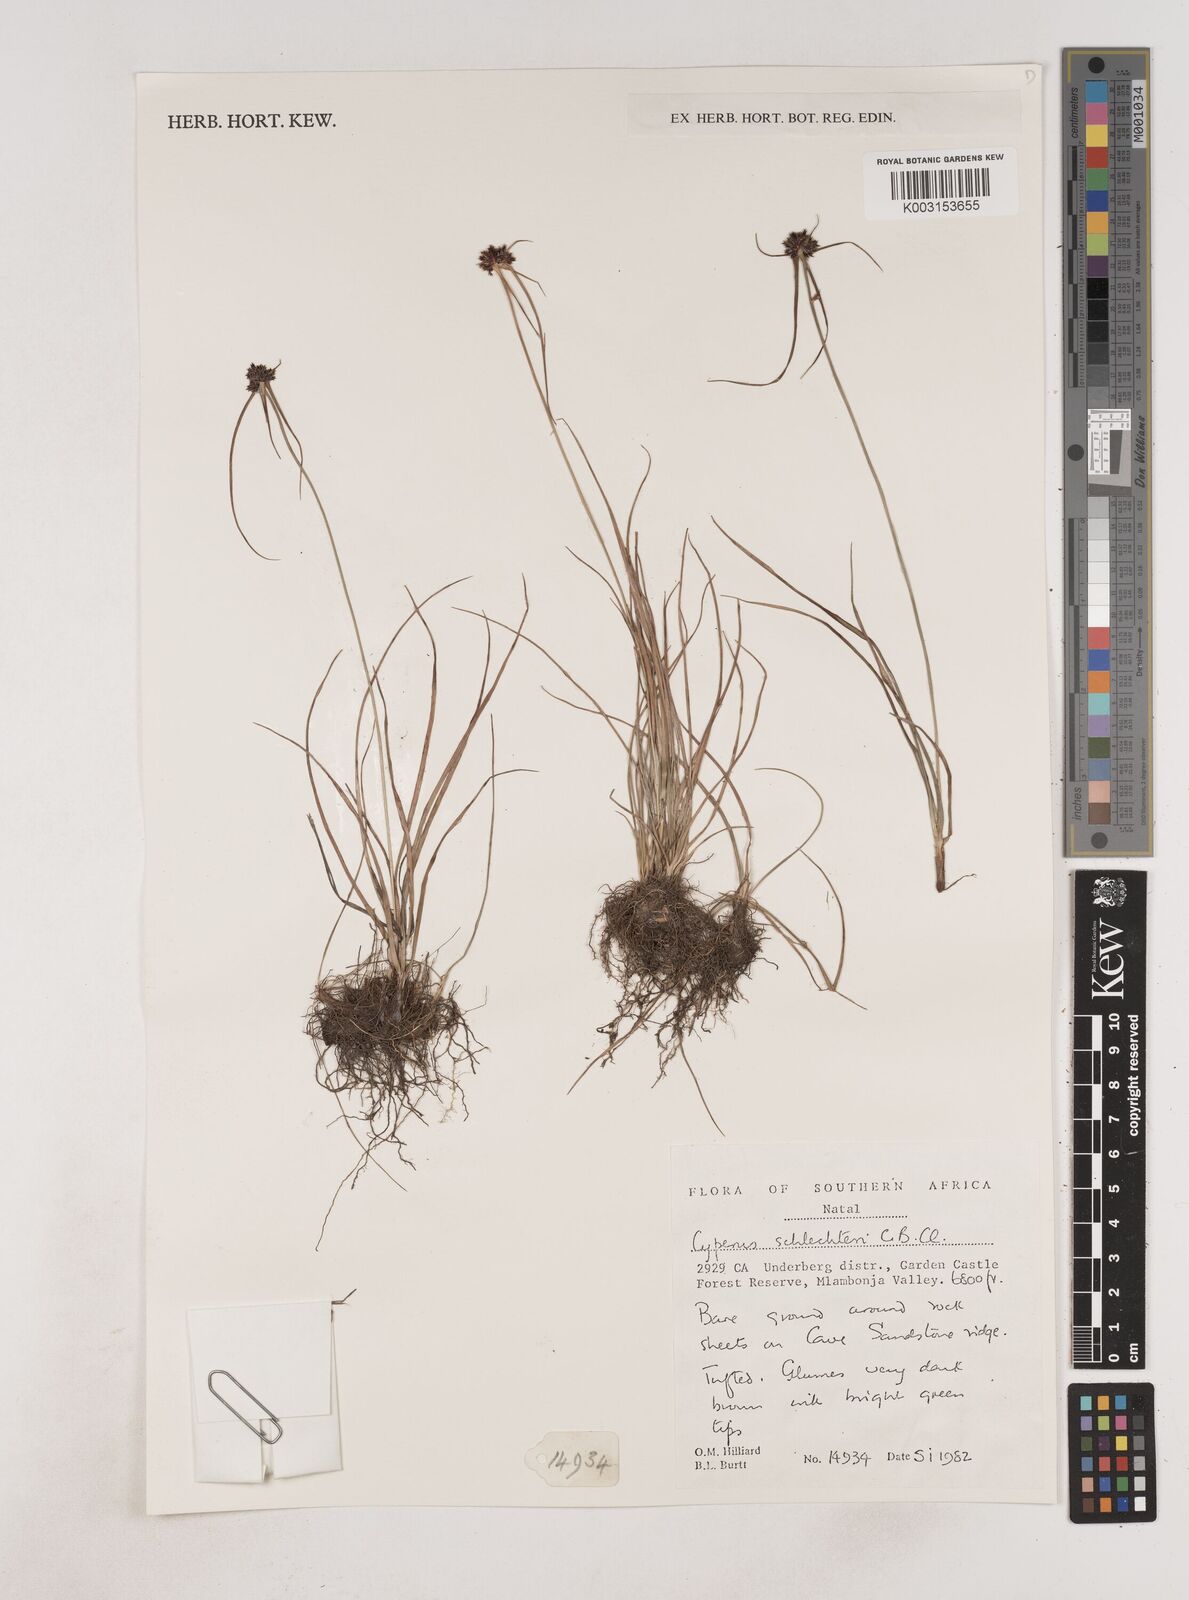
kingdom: Plantae
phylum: Tracheophyta
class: Liliopsida
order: Poales
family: Cyperaceae
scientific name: Cyperaceae
